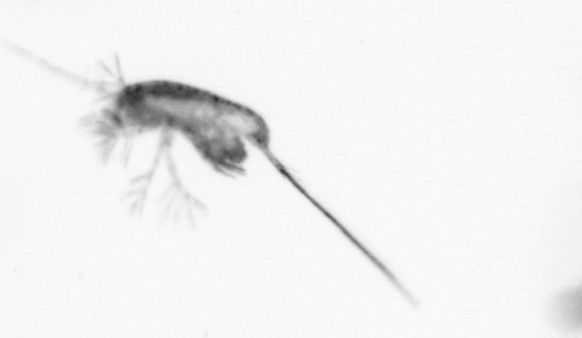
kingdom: Animalia
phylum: Arthropoda
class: Copepoda
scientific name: Copepoda
